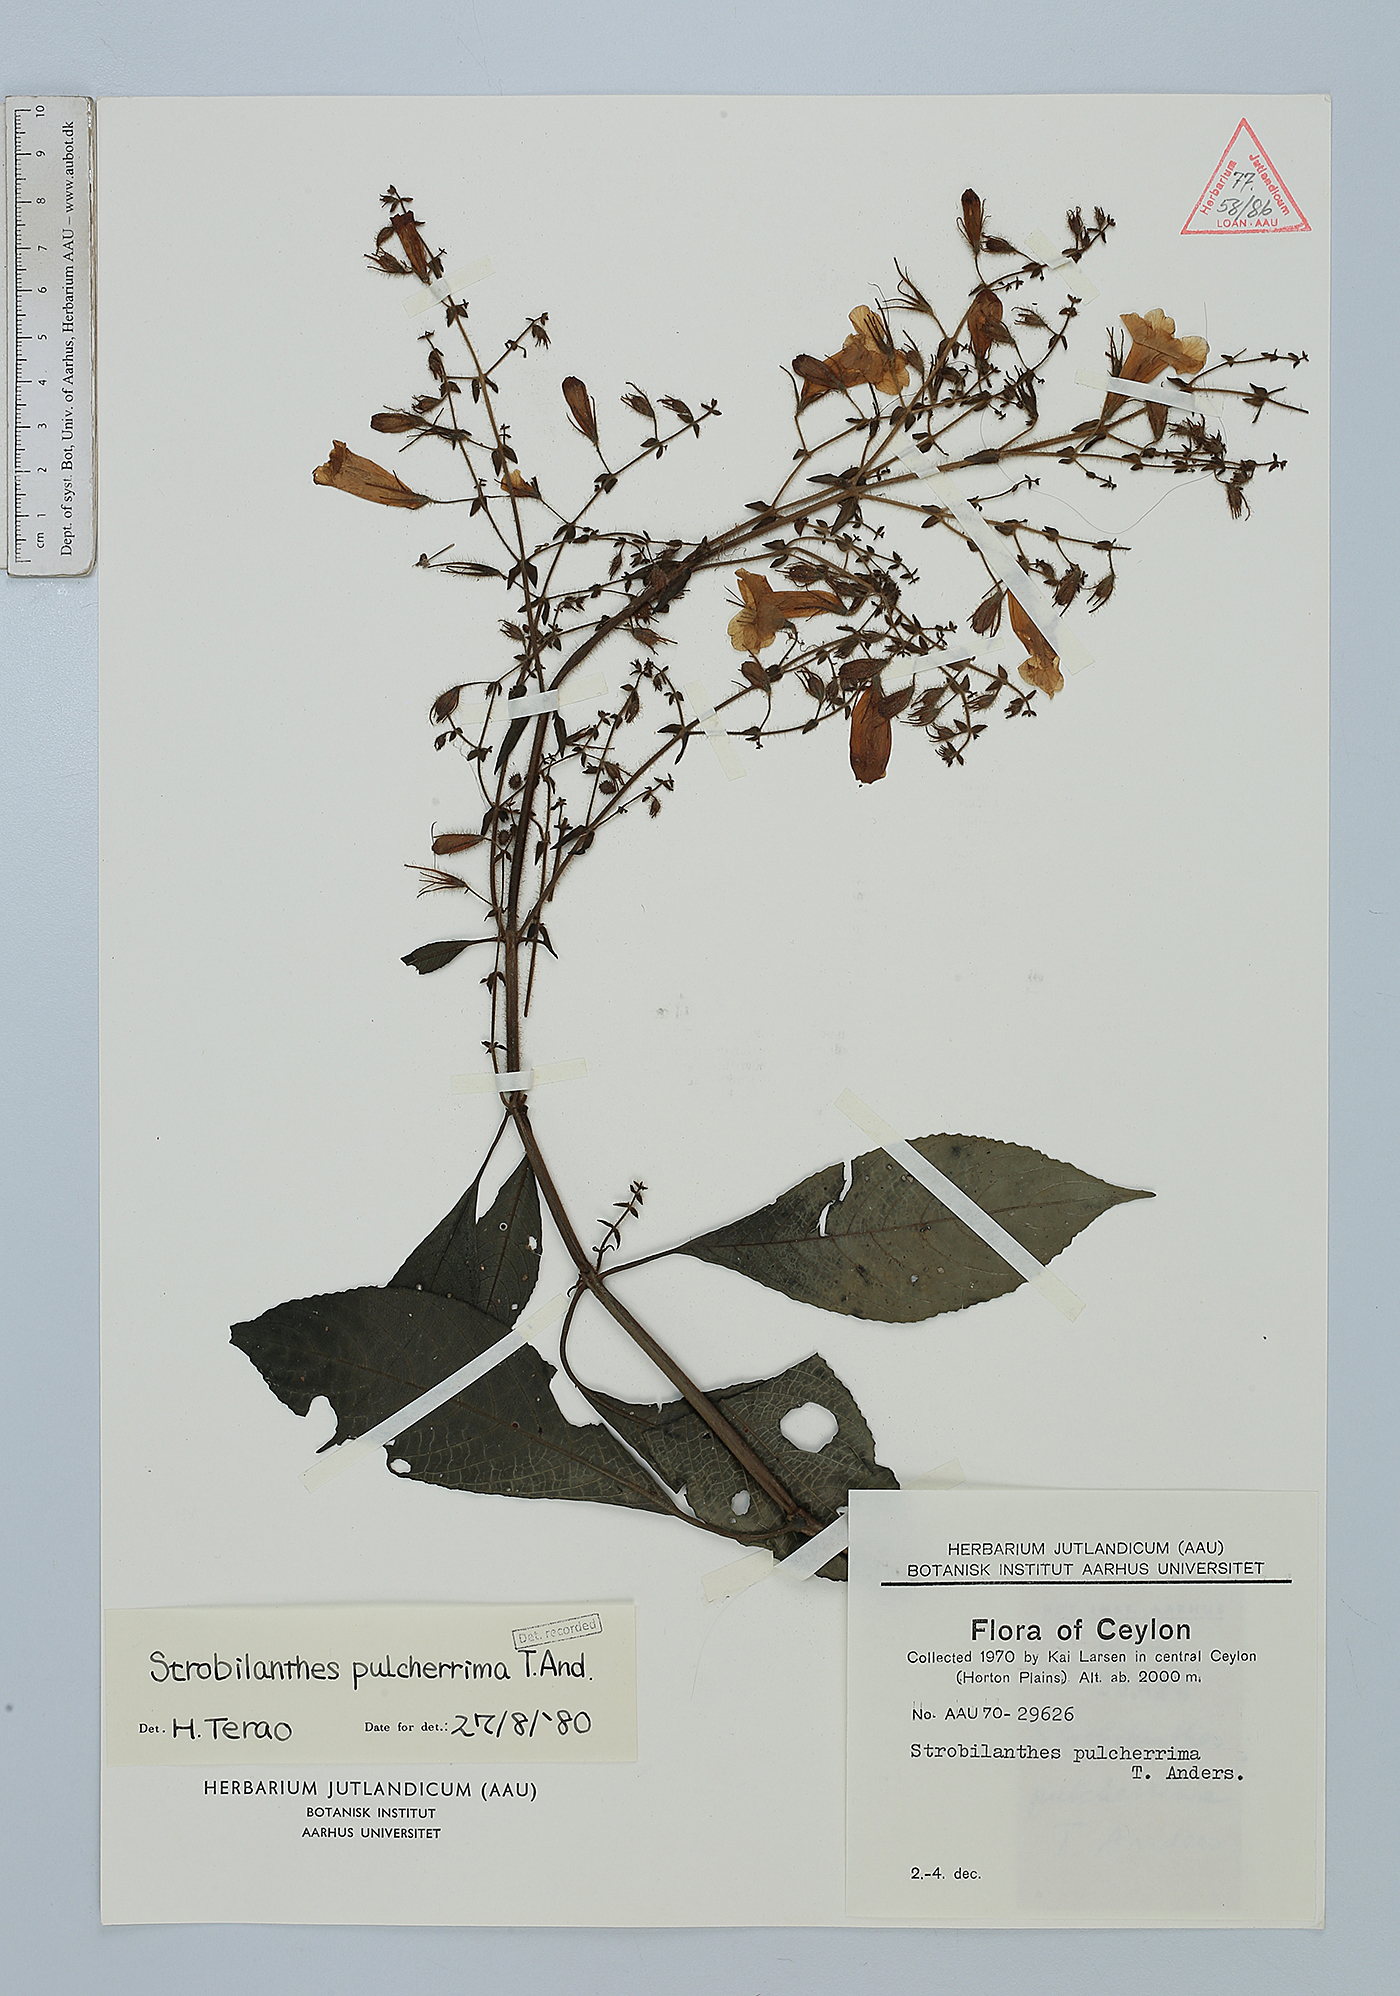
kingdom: Plantae
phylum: Tracheophyta
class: Magnoliopsida
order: Lamiales
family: Acanthaceae
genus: Strobilanthes
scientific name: Strobilanthes pulcherrima
